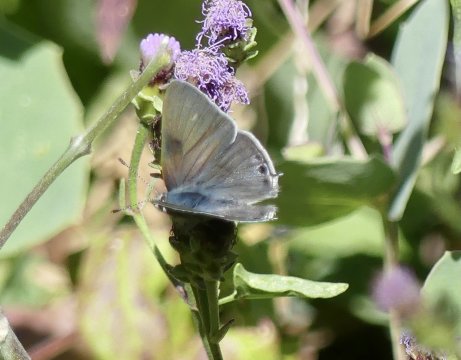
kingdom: Animalia
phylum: Arthropoda
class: Insecta
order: Lepidoptera
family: Lycaenidae
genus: Callicista
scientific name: Callicista columella
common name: Mallow Scrub-Hairstreak
